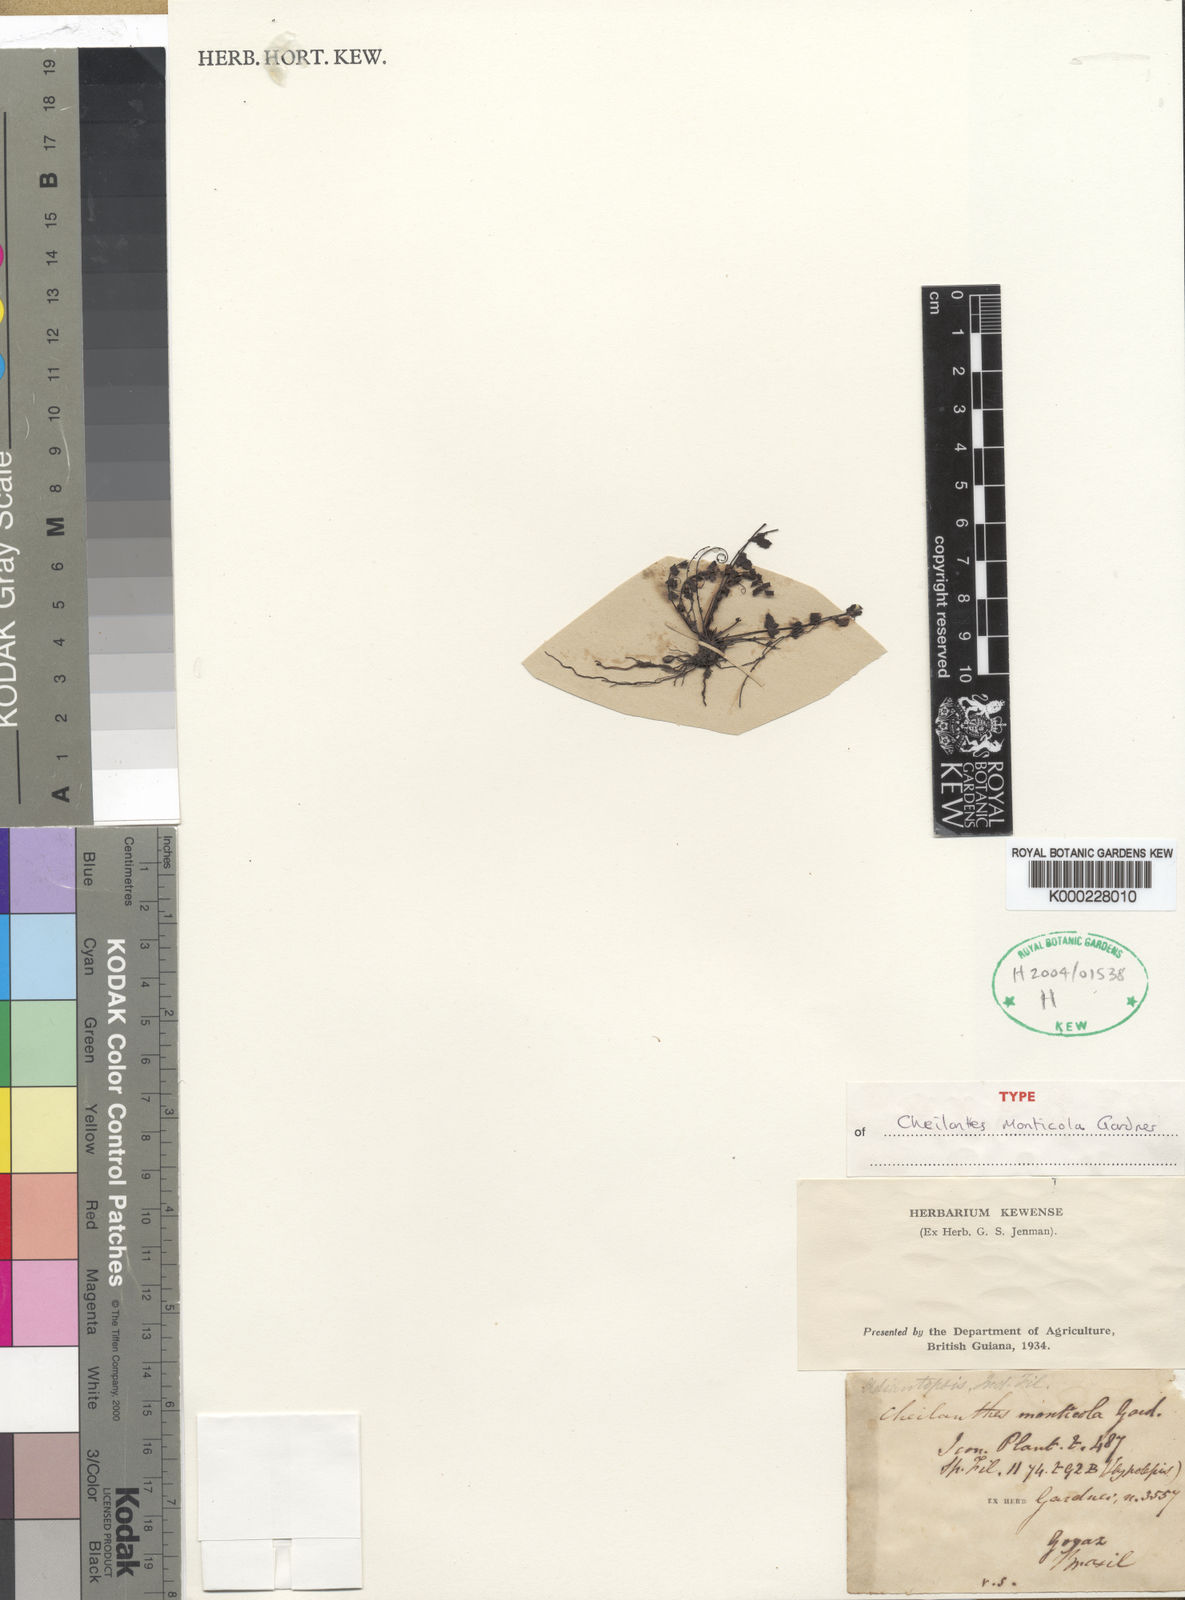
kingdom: Plantae
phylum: Tracheophyta
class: Polypodiopsida
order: Polypodiales
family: Pteridaceae
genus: Adiantopsis
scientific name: Adiantopsis monticola
